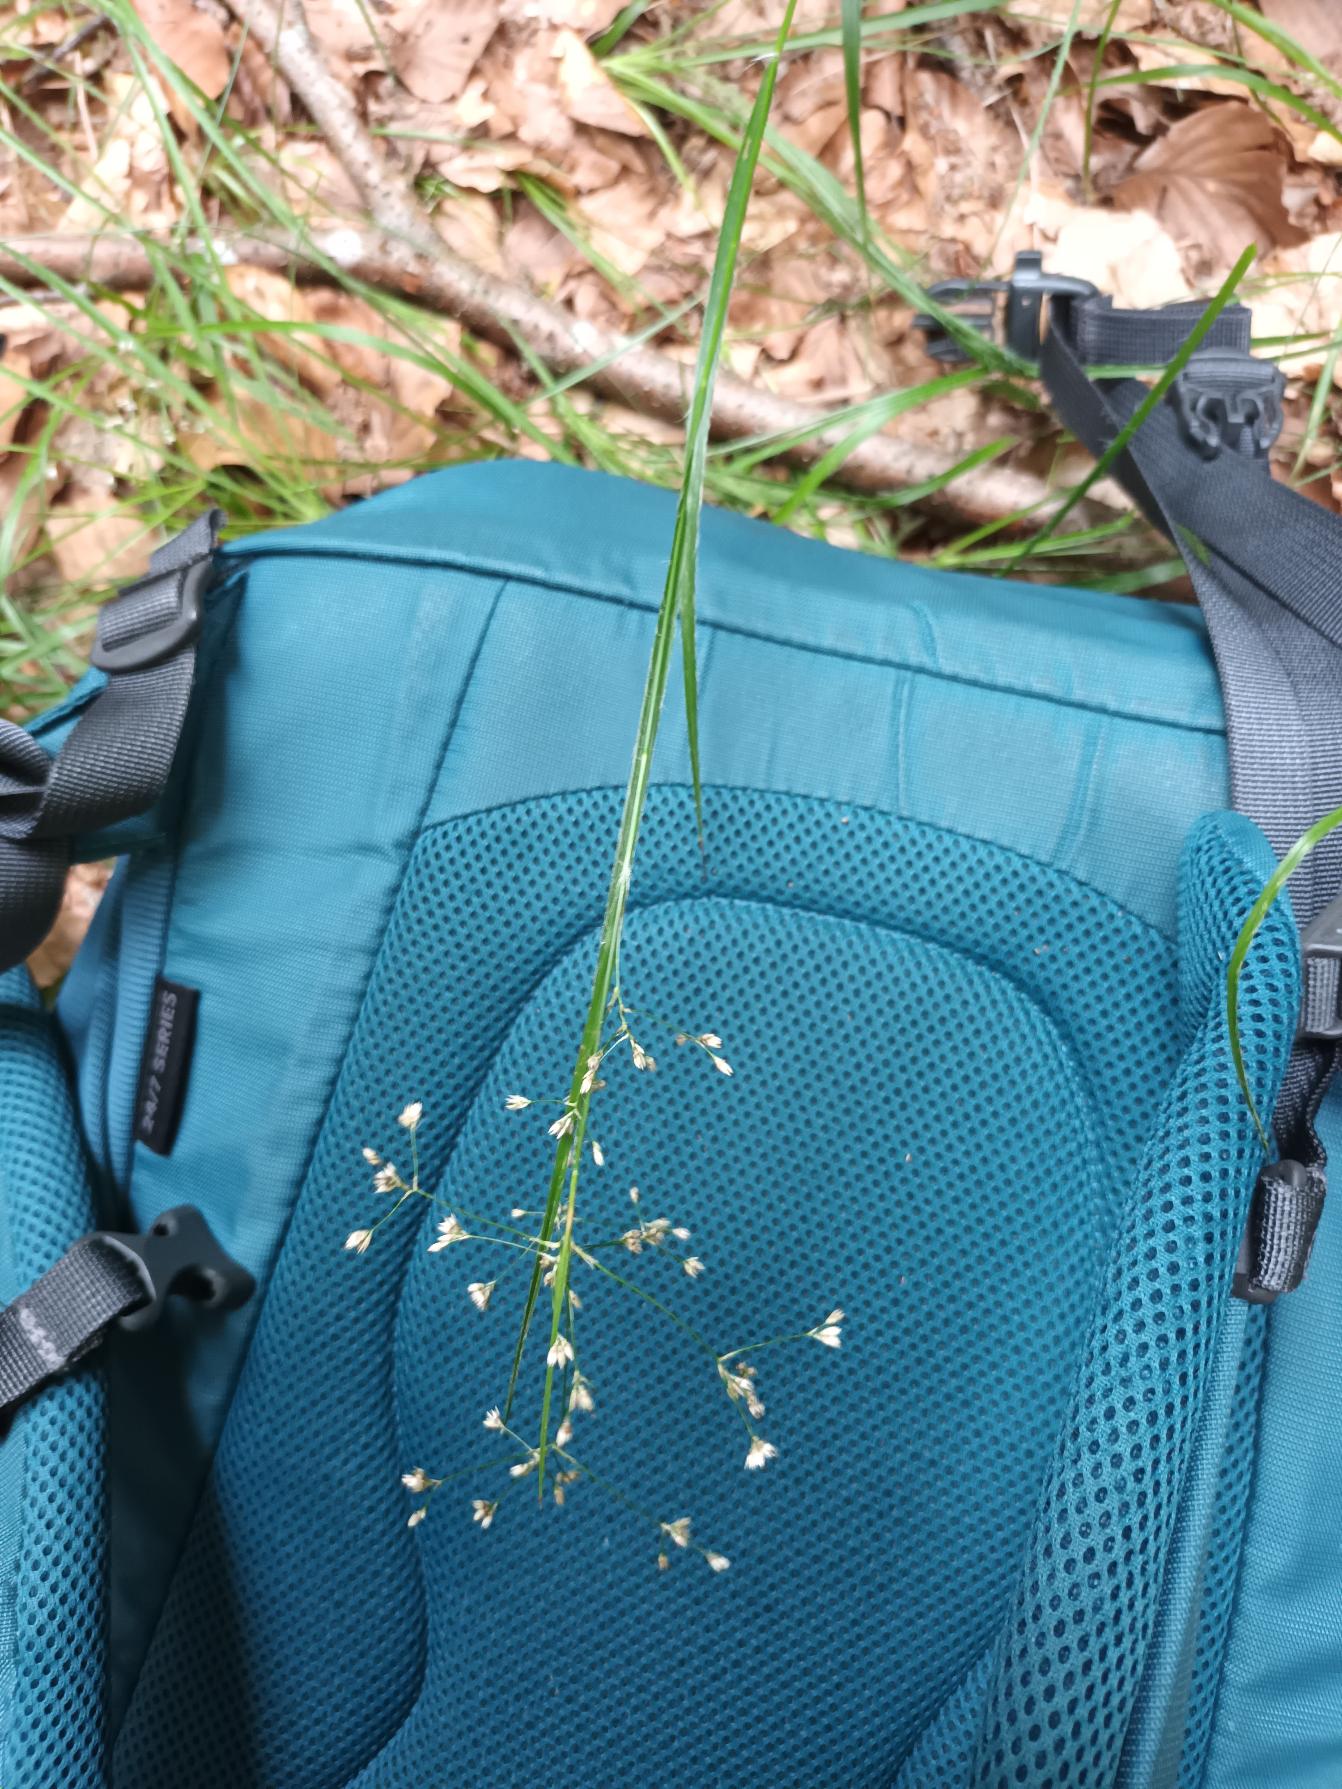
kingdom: Plantae
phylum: Tracheophyta
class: Liliopsida
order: Poales
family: Juncaceae
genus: Luzula
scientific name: Luzula luzuloides
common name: Bleg frytle
